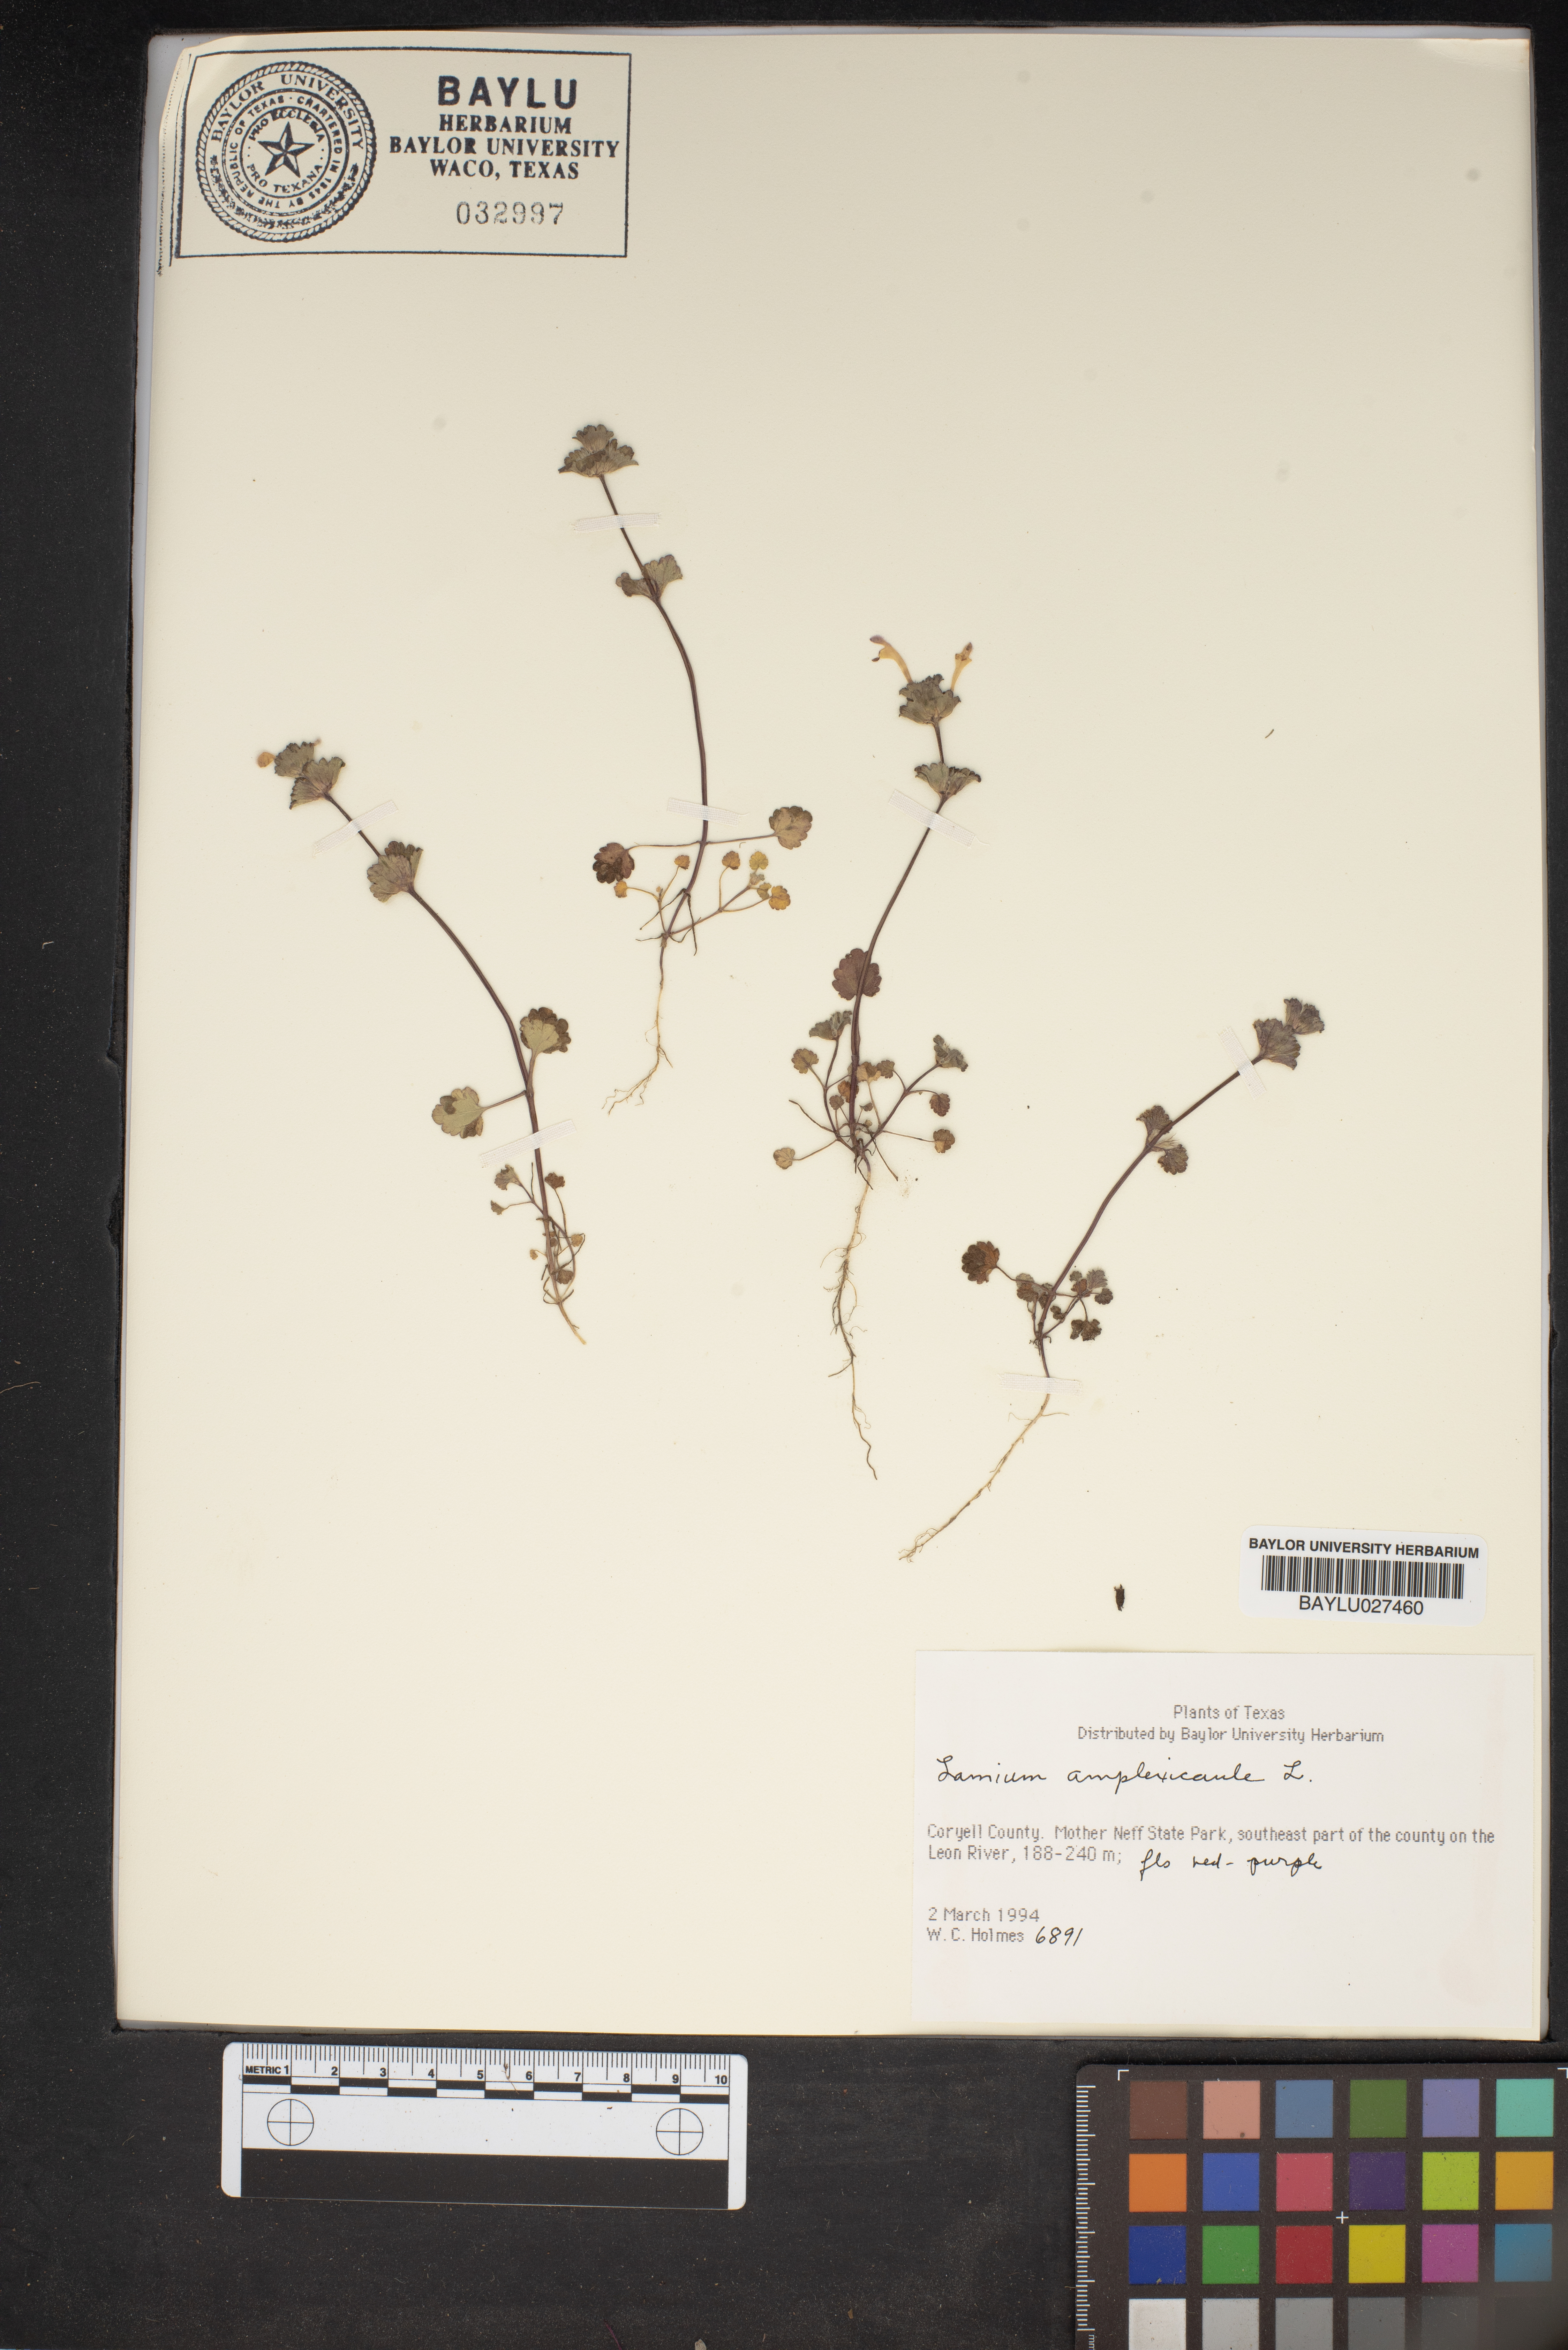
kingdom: Plantae
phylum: Tracheophyta
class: Magnoliopsida
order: Lamiales
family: Lamiaceae
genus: Lamium
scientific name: Lamium amplexicaule
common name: Henbit dead-nettle
